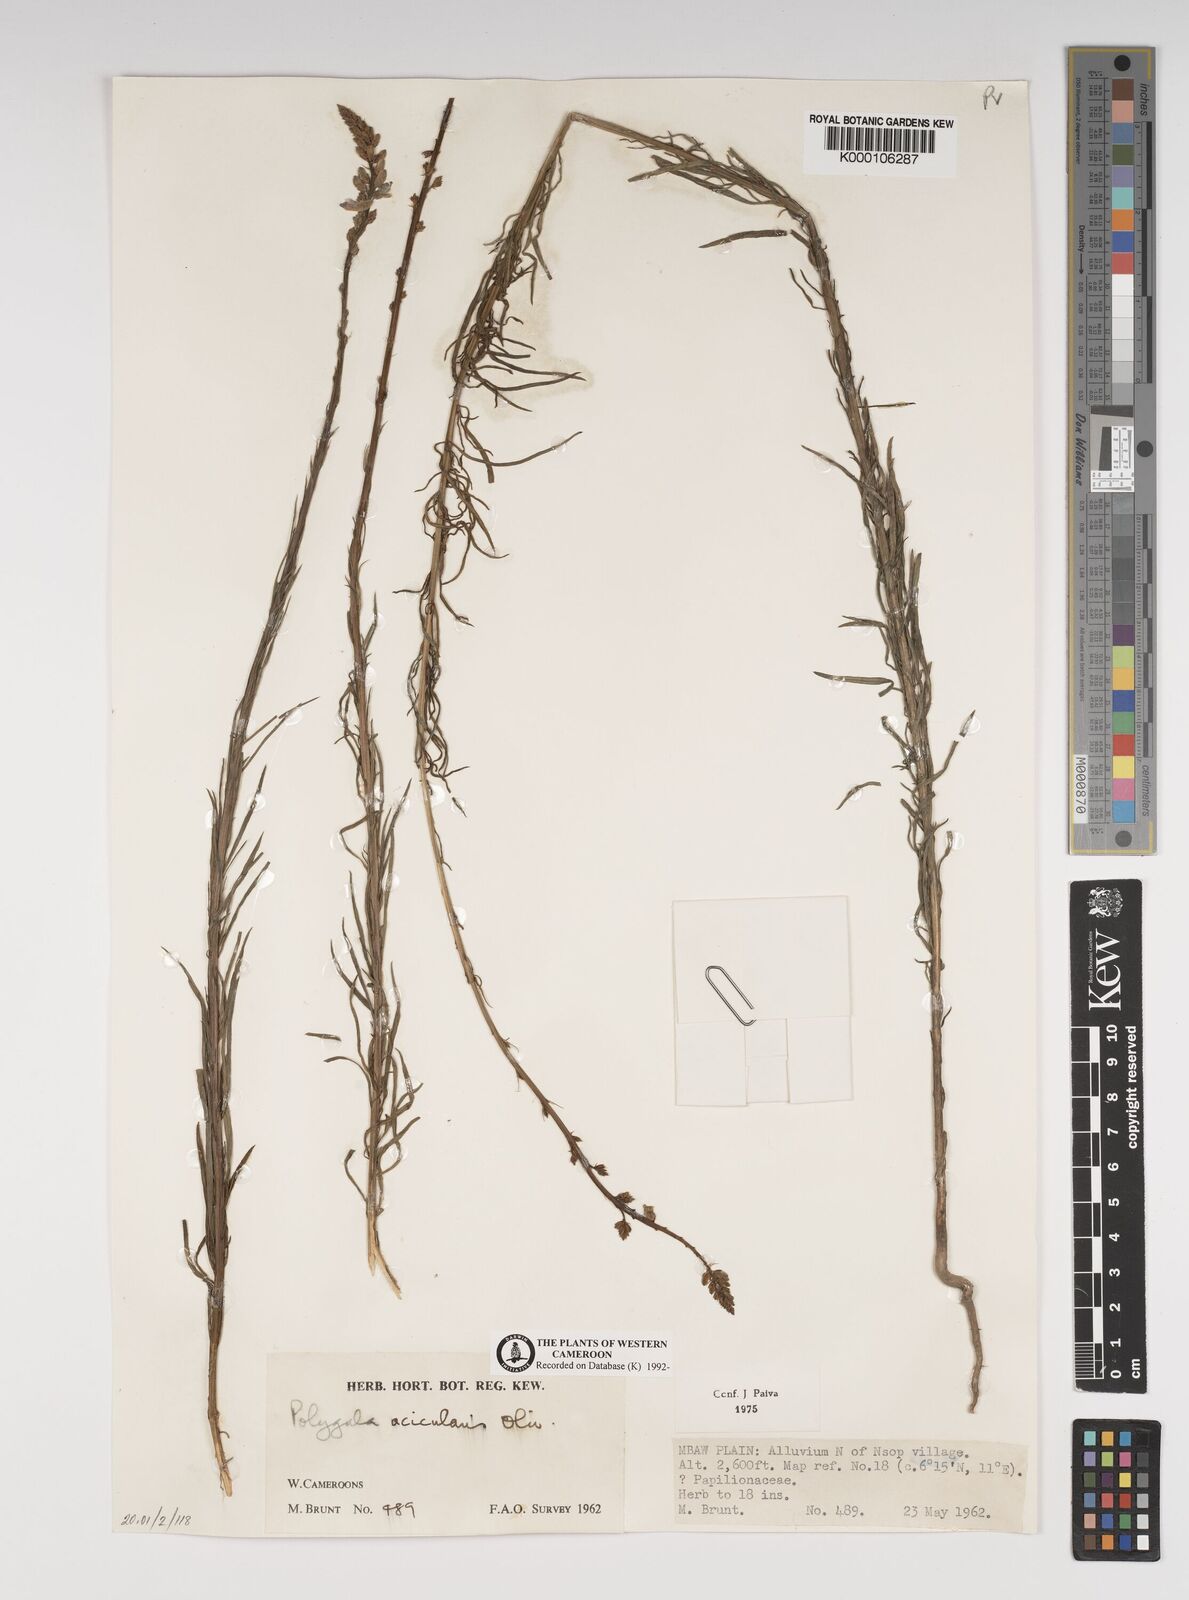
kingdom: Plantae
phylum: Tracheophyta
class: Magnoliopsida
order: Fabales
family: Polygalaceae
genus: Polygala
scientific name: Polygala acicularis
